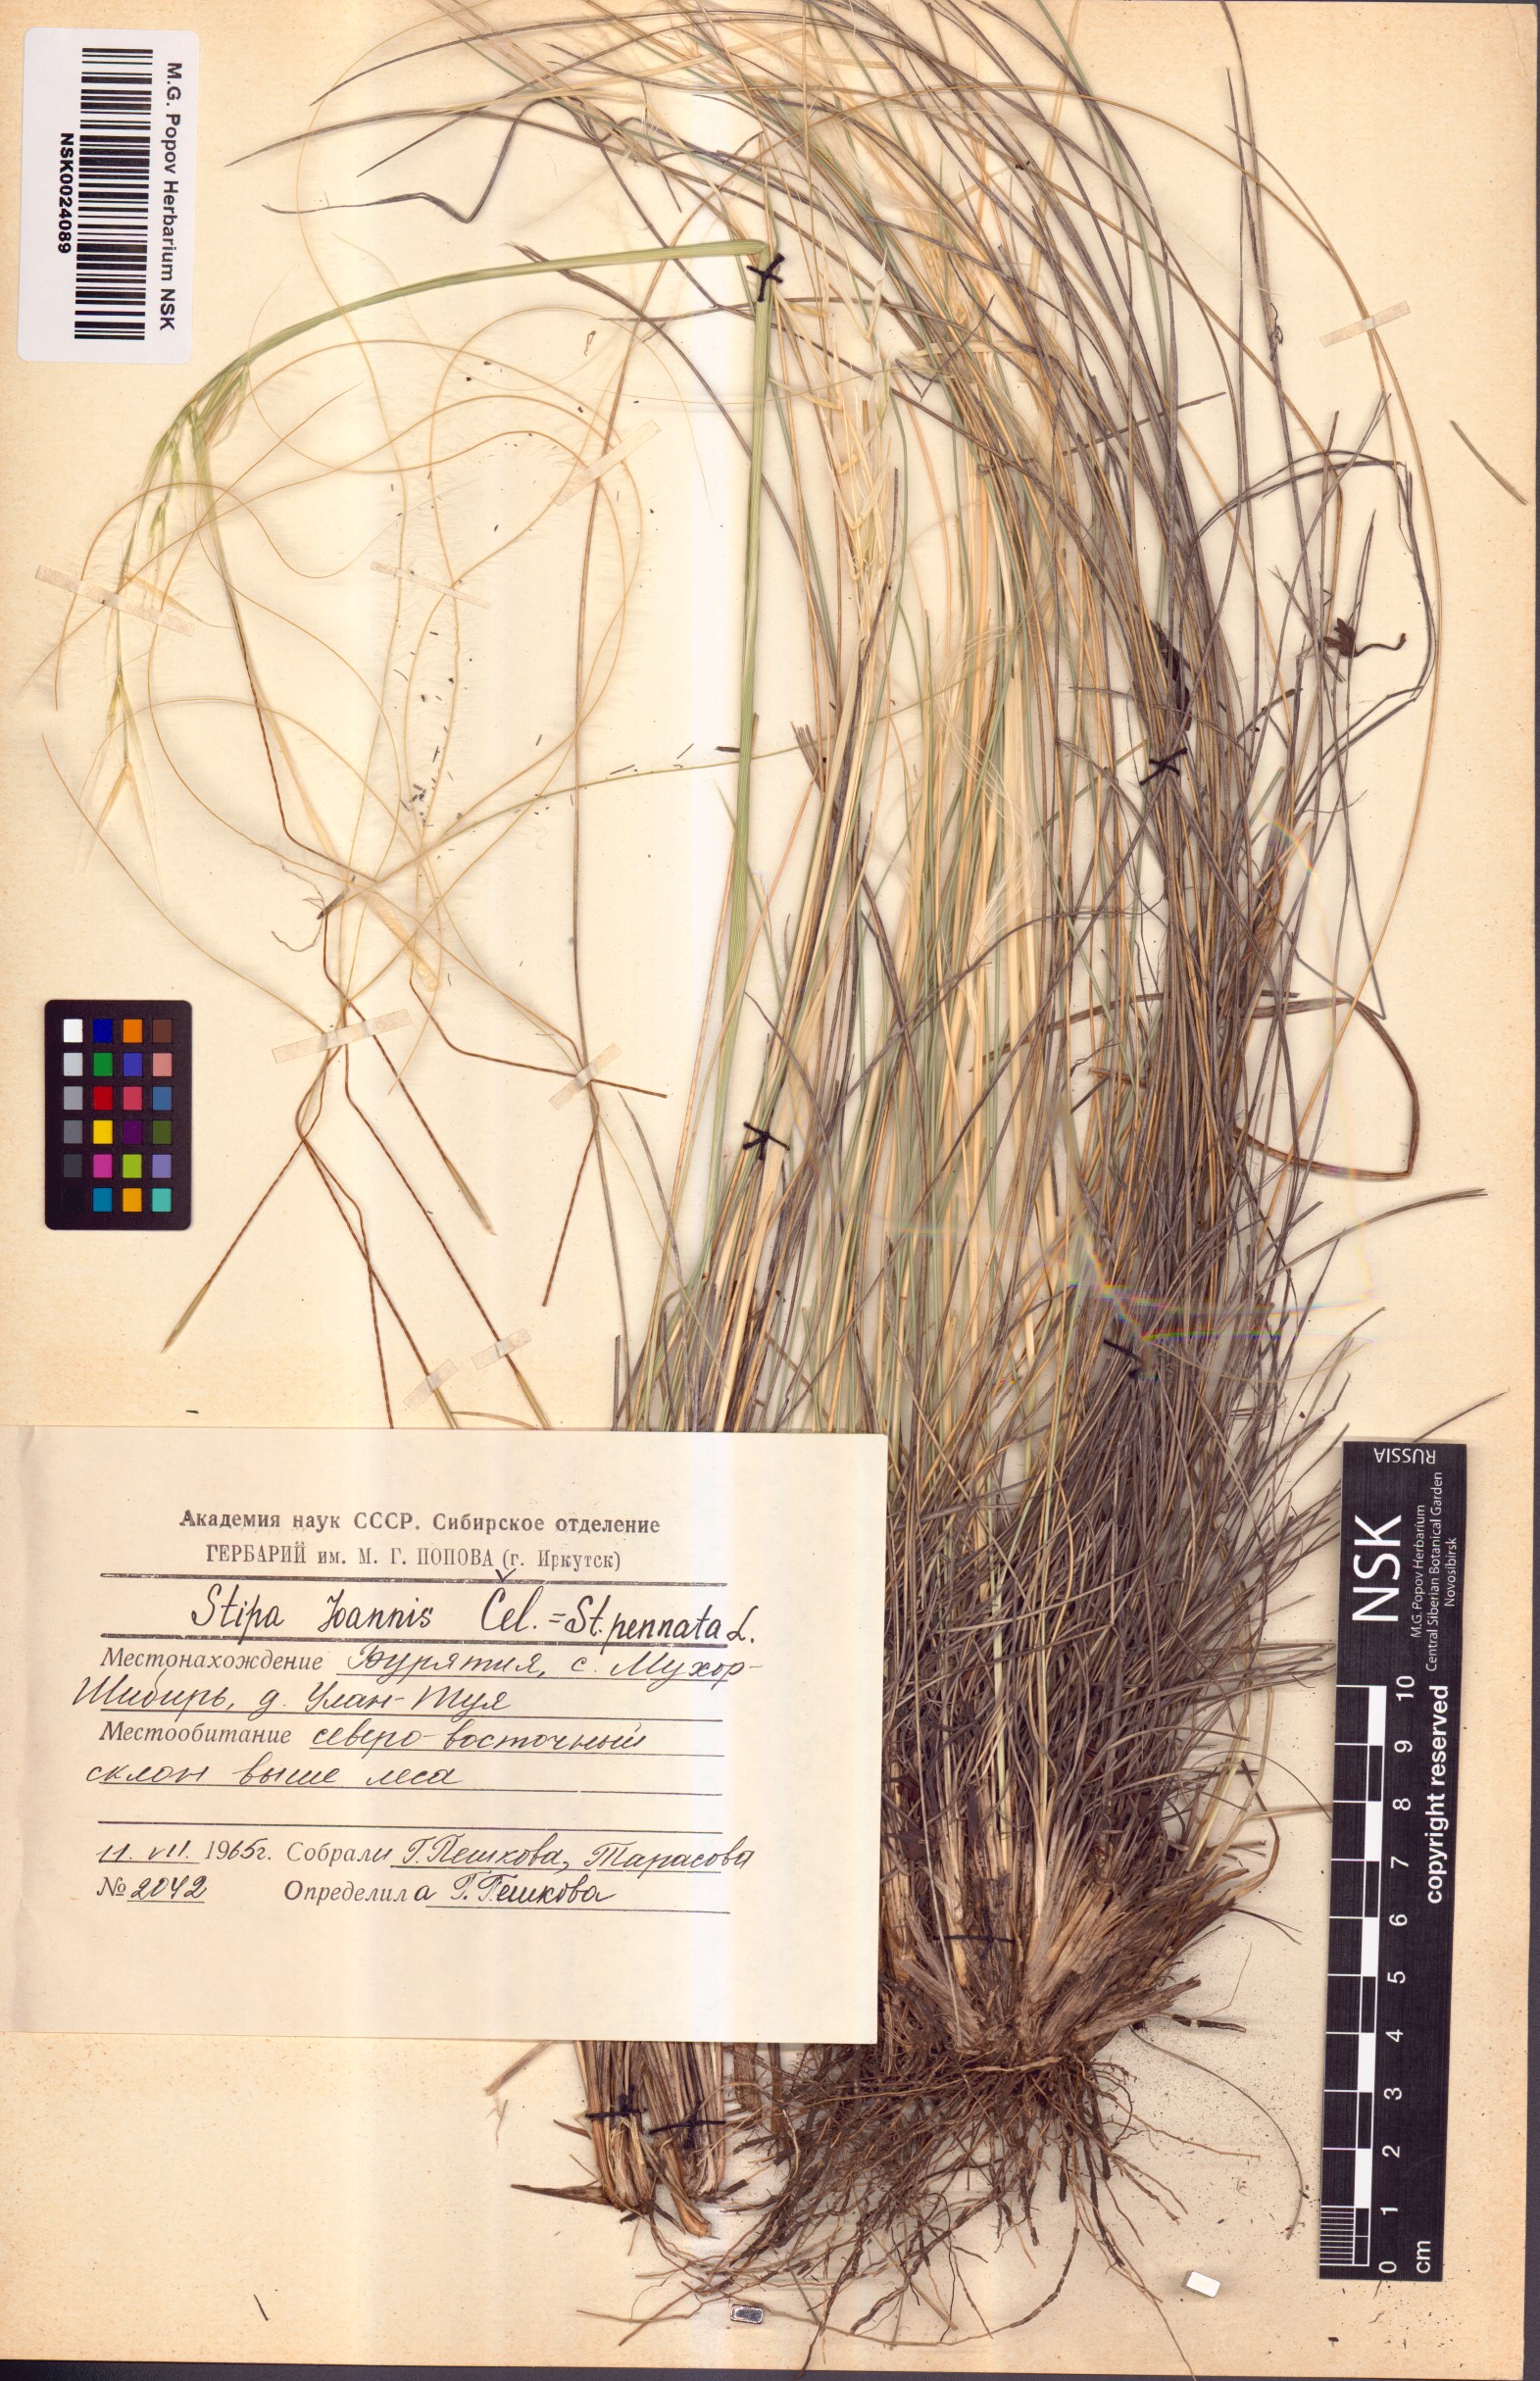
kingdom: Plantae
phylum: Tracheophyta
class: Liliopsida
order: Poales
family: Poaceae
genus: Stipa
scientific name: Stipa pennata
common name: European feather grass
